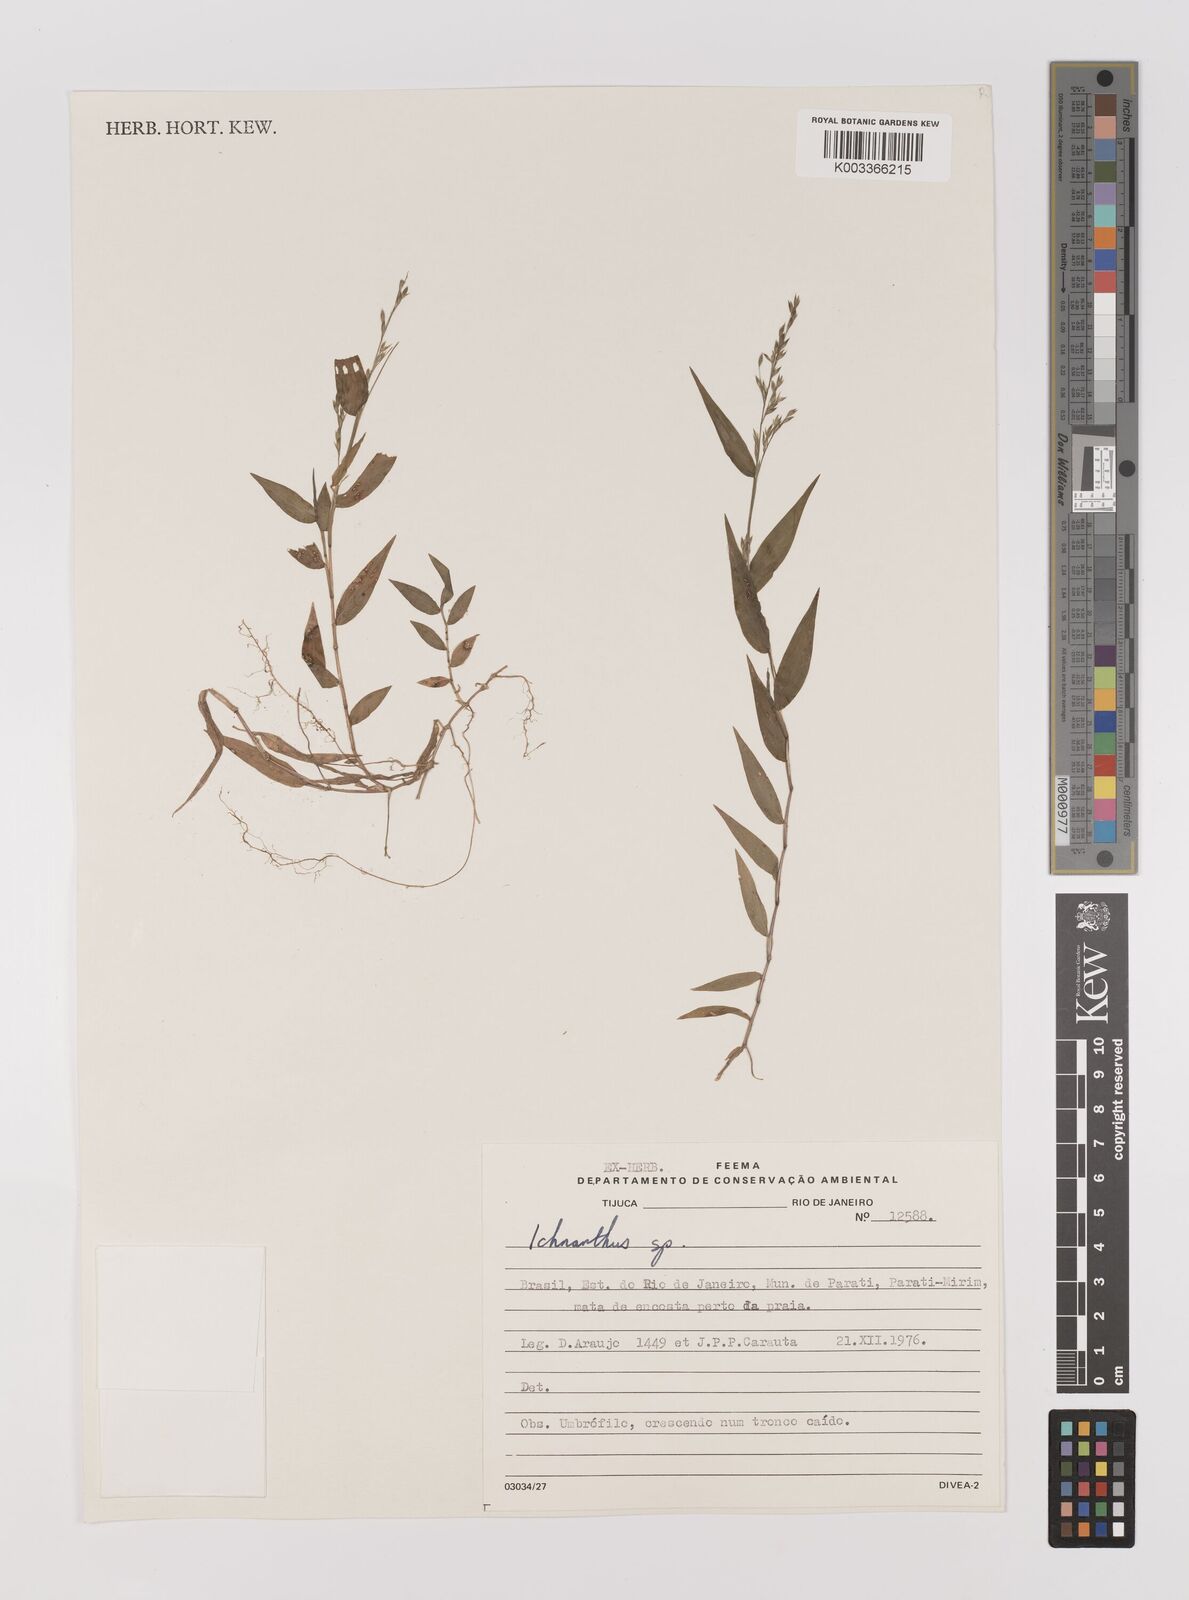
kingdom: Plantae
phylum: Tracheophyta
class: Liliopsida
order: Poales
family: Poaceae
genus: Ichnanthus
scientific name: Ichnanthus pallens
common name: Water grass
